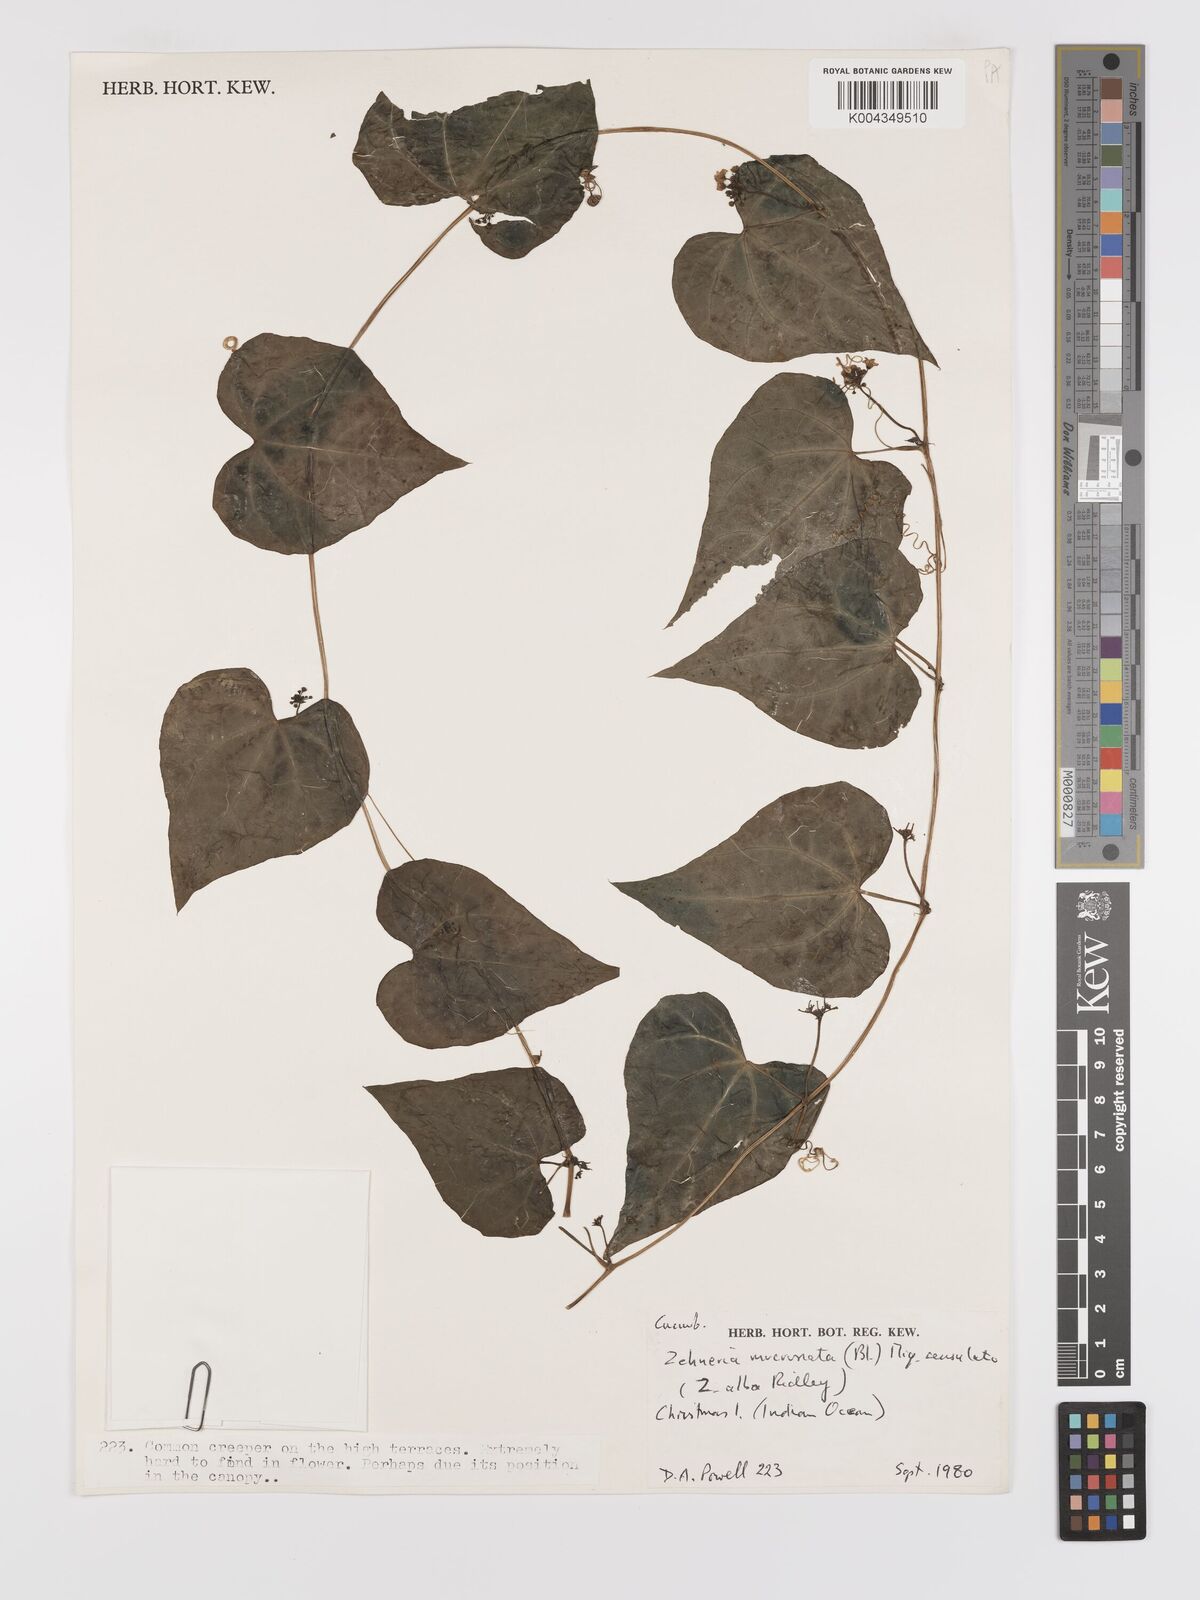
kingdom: Plantae
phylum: Tracheophyta
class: Magnoliopsida
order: Cucurbitales
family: Cucurbitaceae
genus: Zehneria
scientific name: Zehneria mucronata
